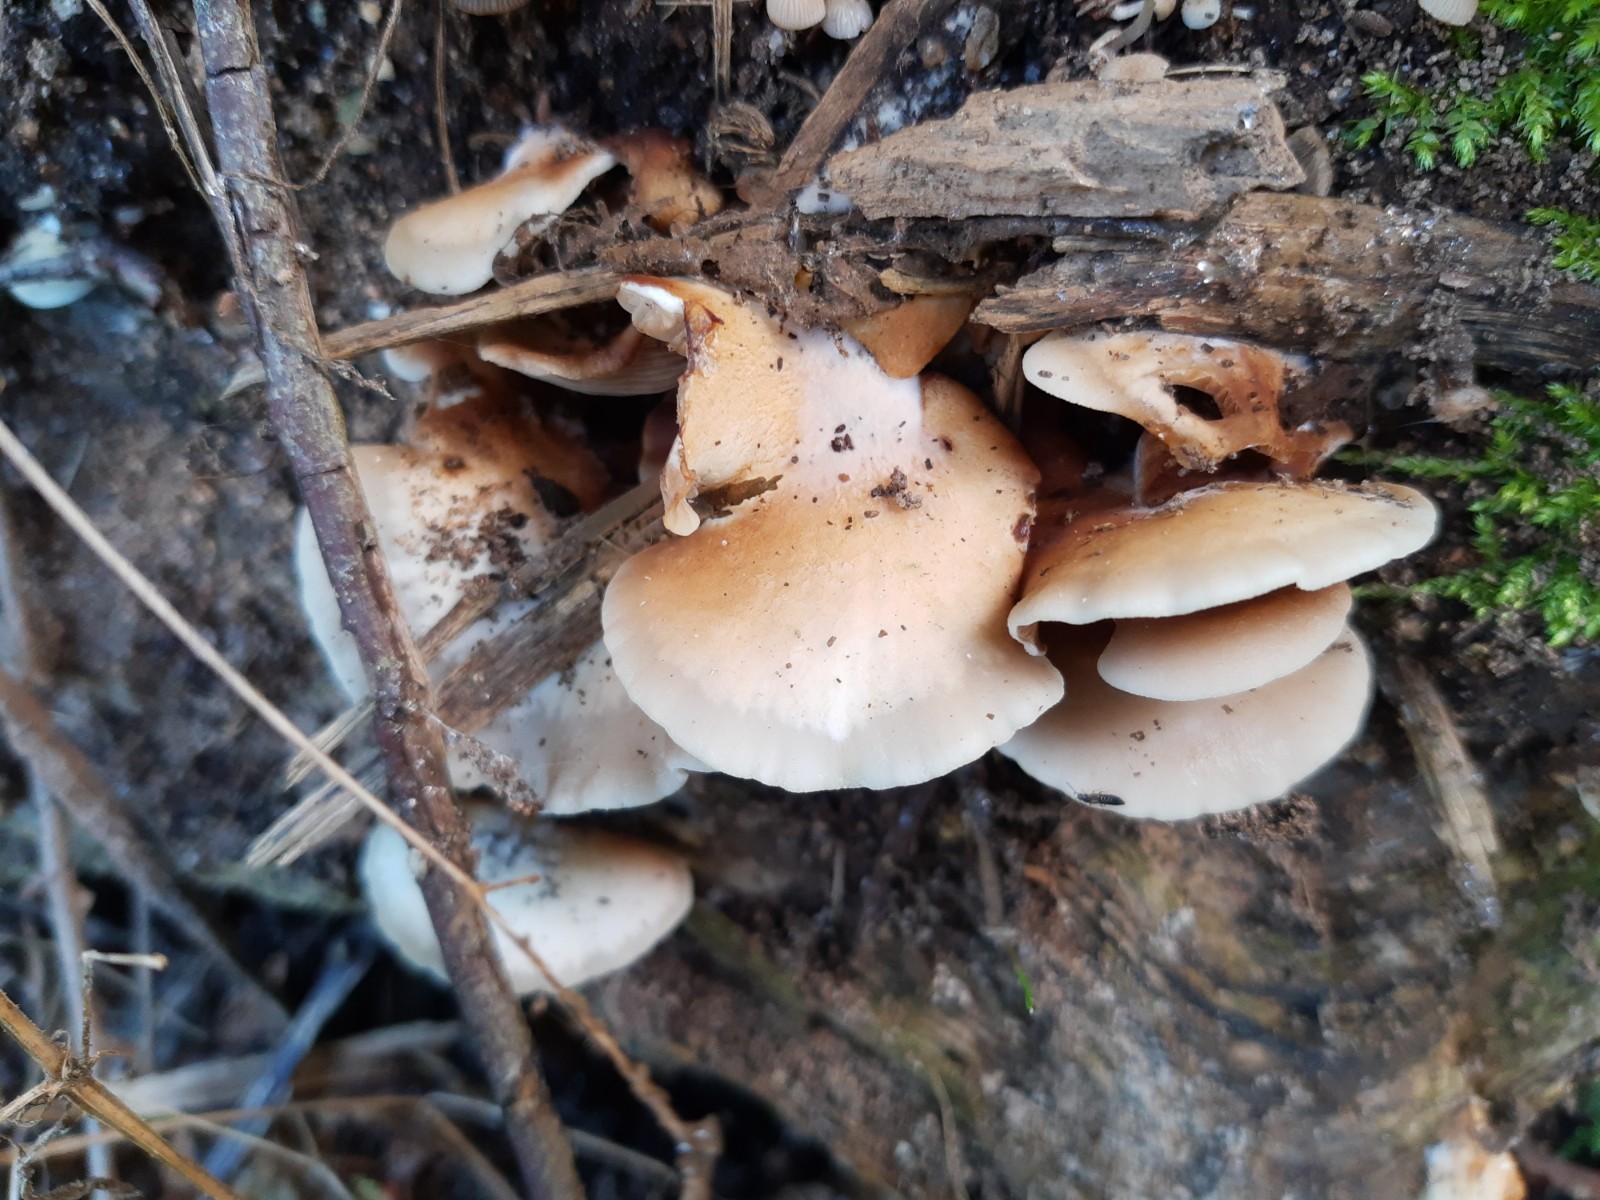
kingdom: Fungi
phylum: Basidiomycota
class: Agaricomycetes
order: Agaricales
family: Crepidotaceae
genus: Crepidotus
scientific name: Crepidotus mollis
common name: blød muslingesvamp
